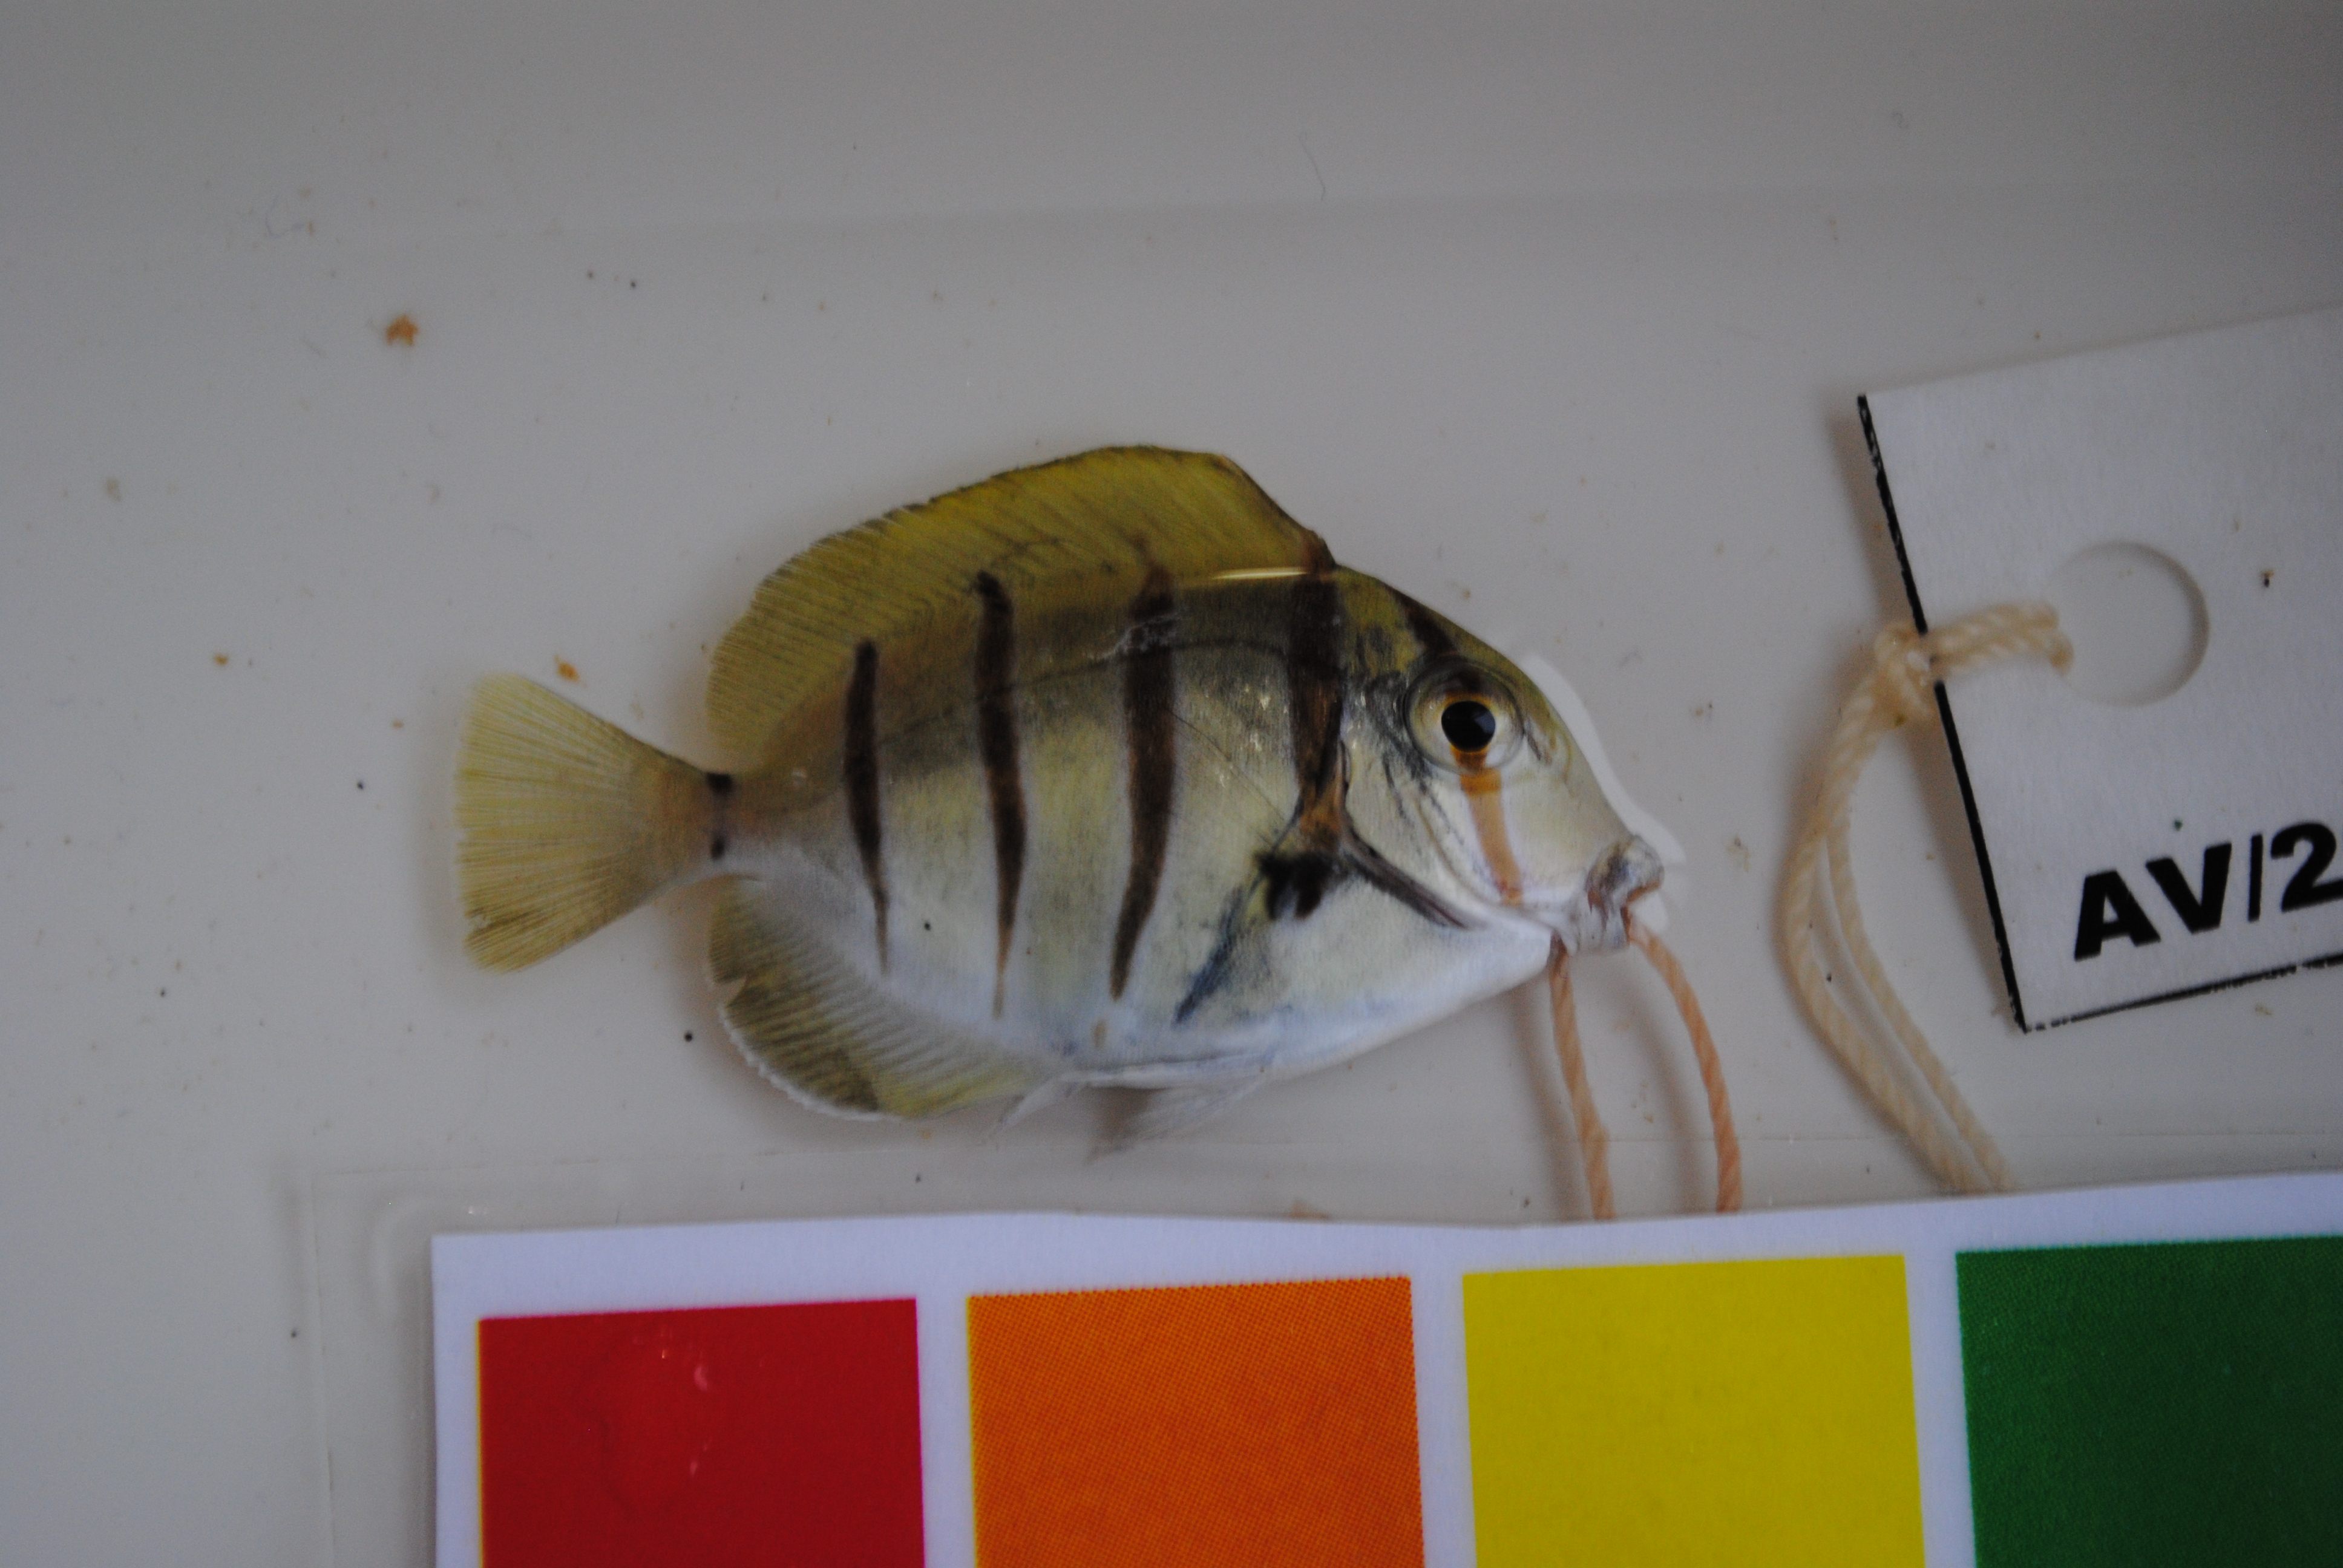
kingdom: Animalia
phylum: Chordata
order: Perciformes
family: Acanthuridae
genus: Acanthurus
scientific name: Acanthurus triostegus
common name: Convict surgeonfish
